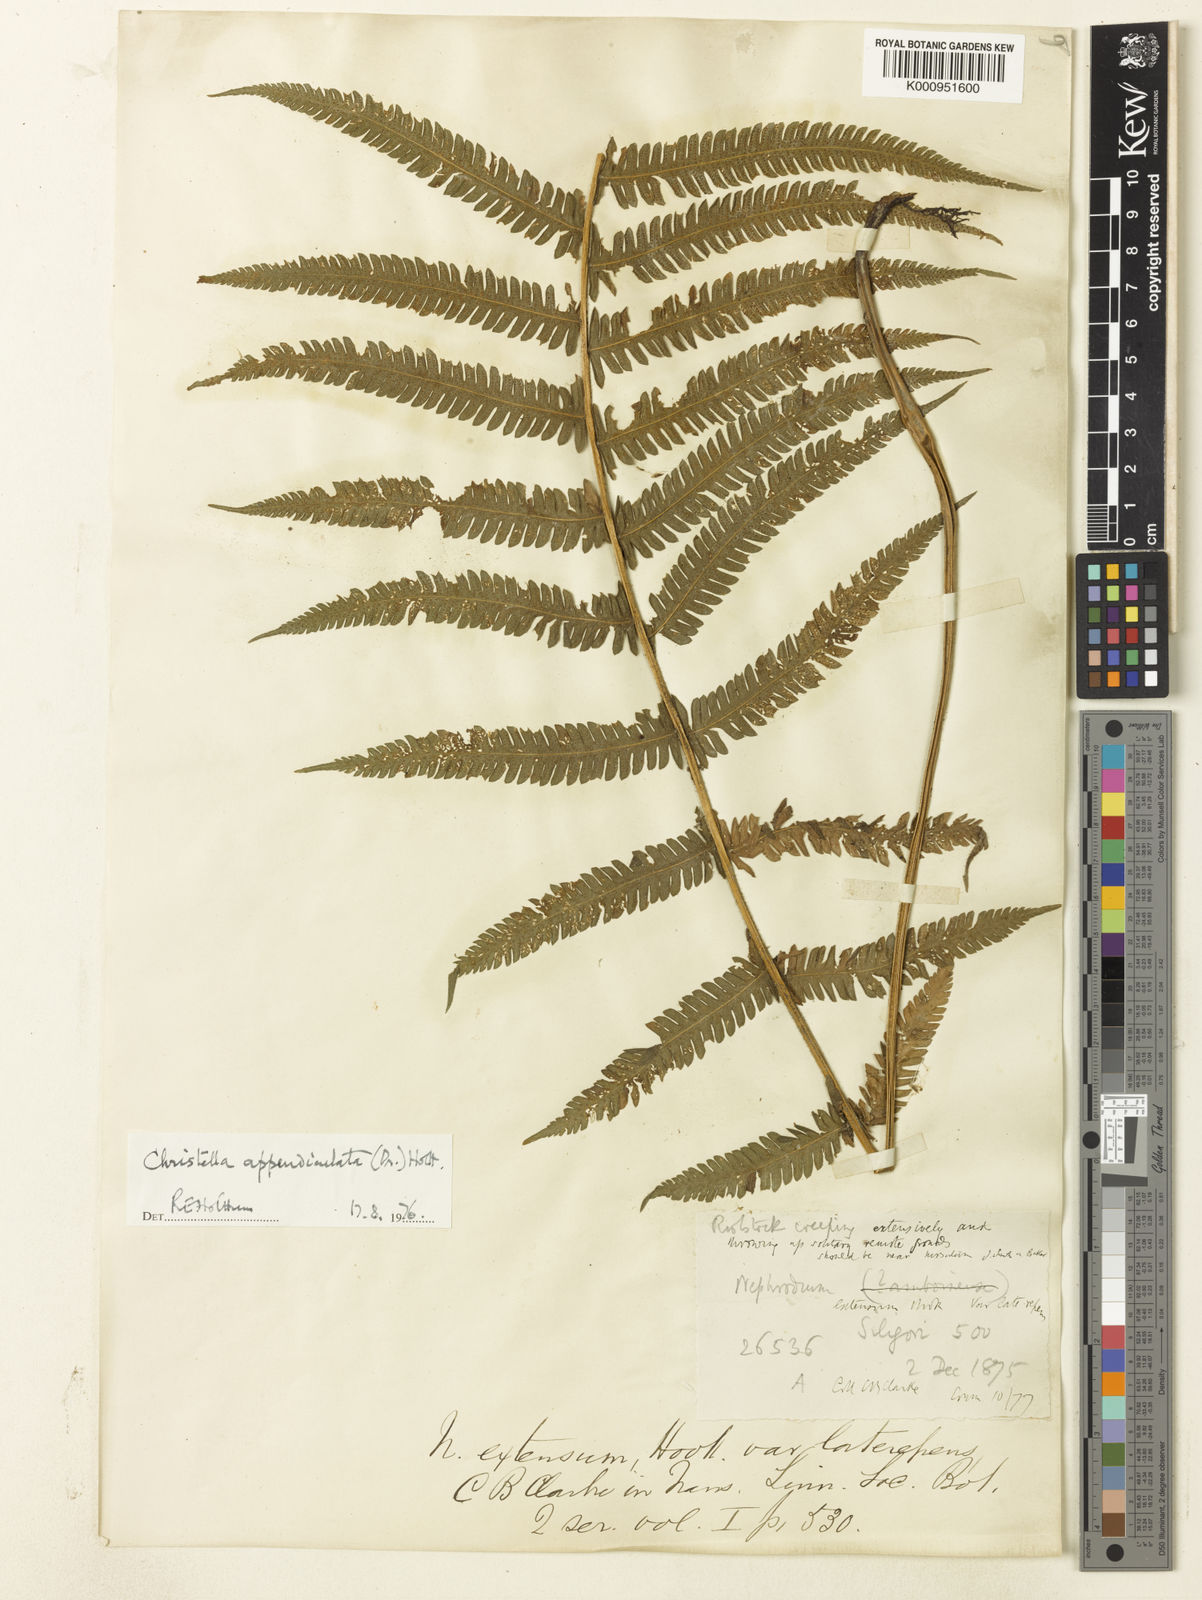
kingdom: Plantae
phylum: Tracheophyta
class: Polypodiopsida
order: Polypodiales
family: Thelypteridaceae
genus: Christella
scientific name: Christella procera
